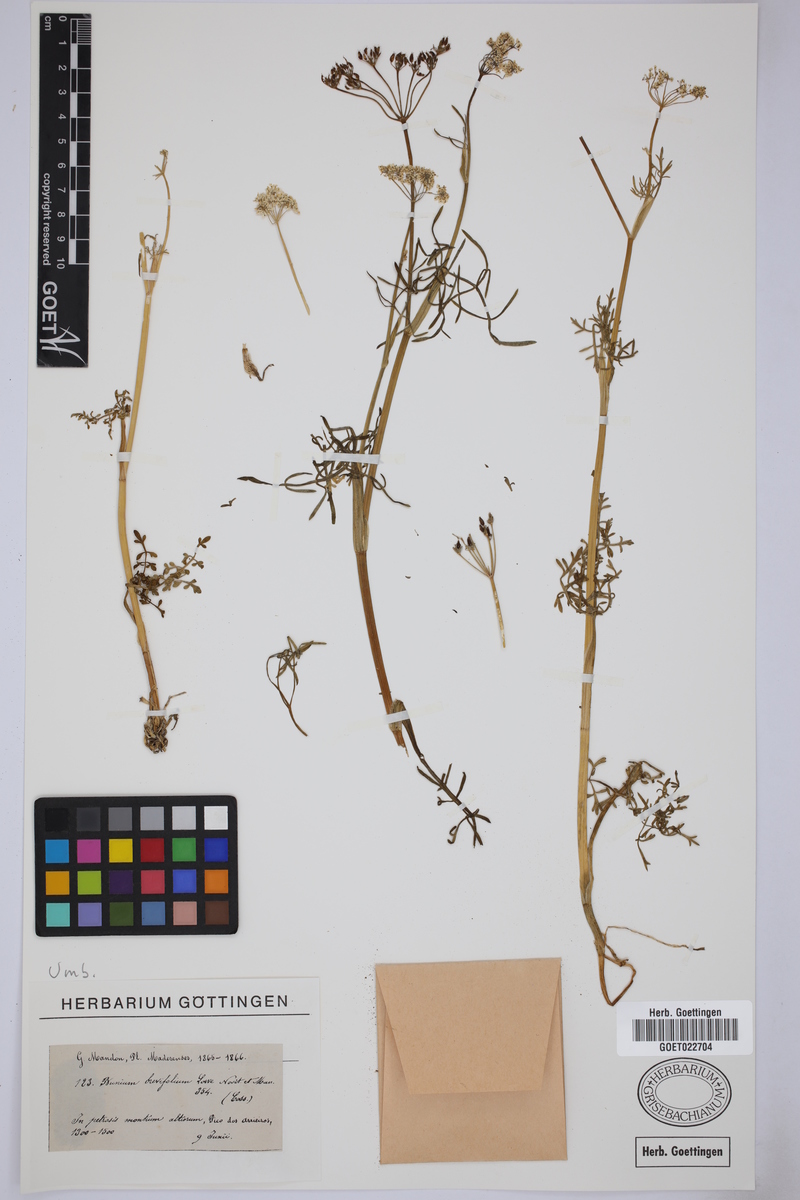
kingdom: Plantae
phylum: Tracheophyta
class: Magnoliopsida
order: Apiales
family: Apiaceae
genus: Conopodium
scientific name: Conopodium brevifolium
